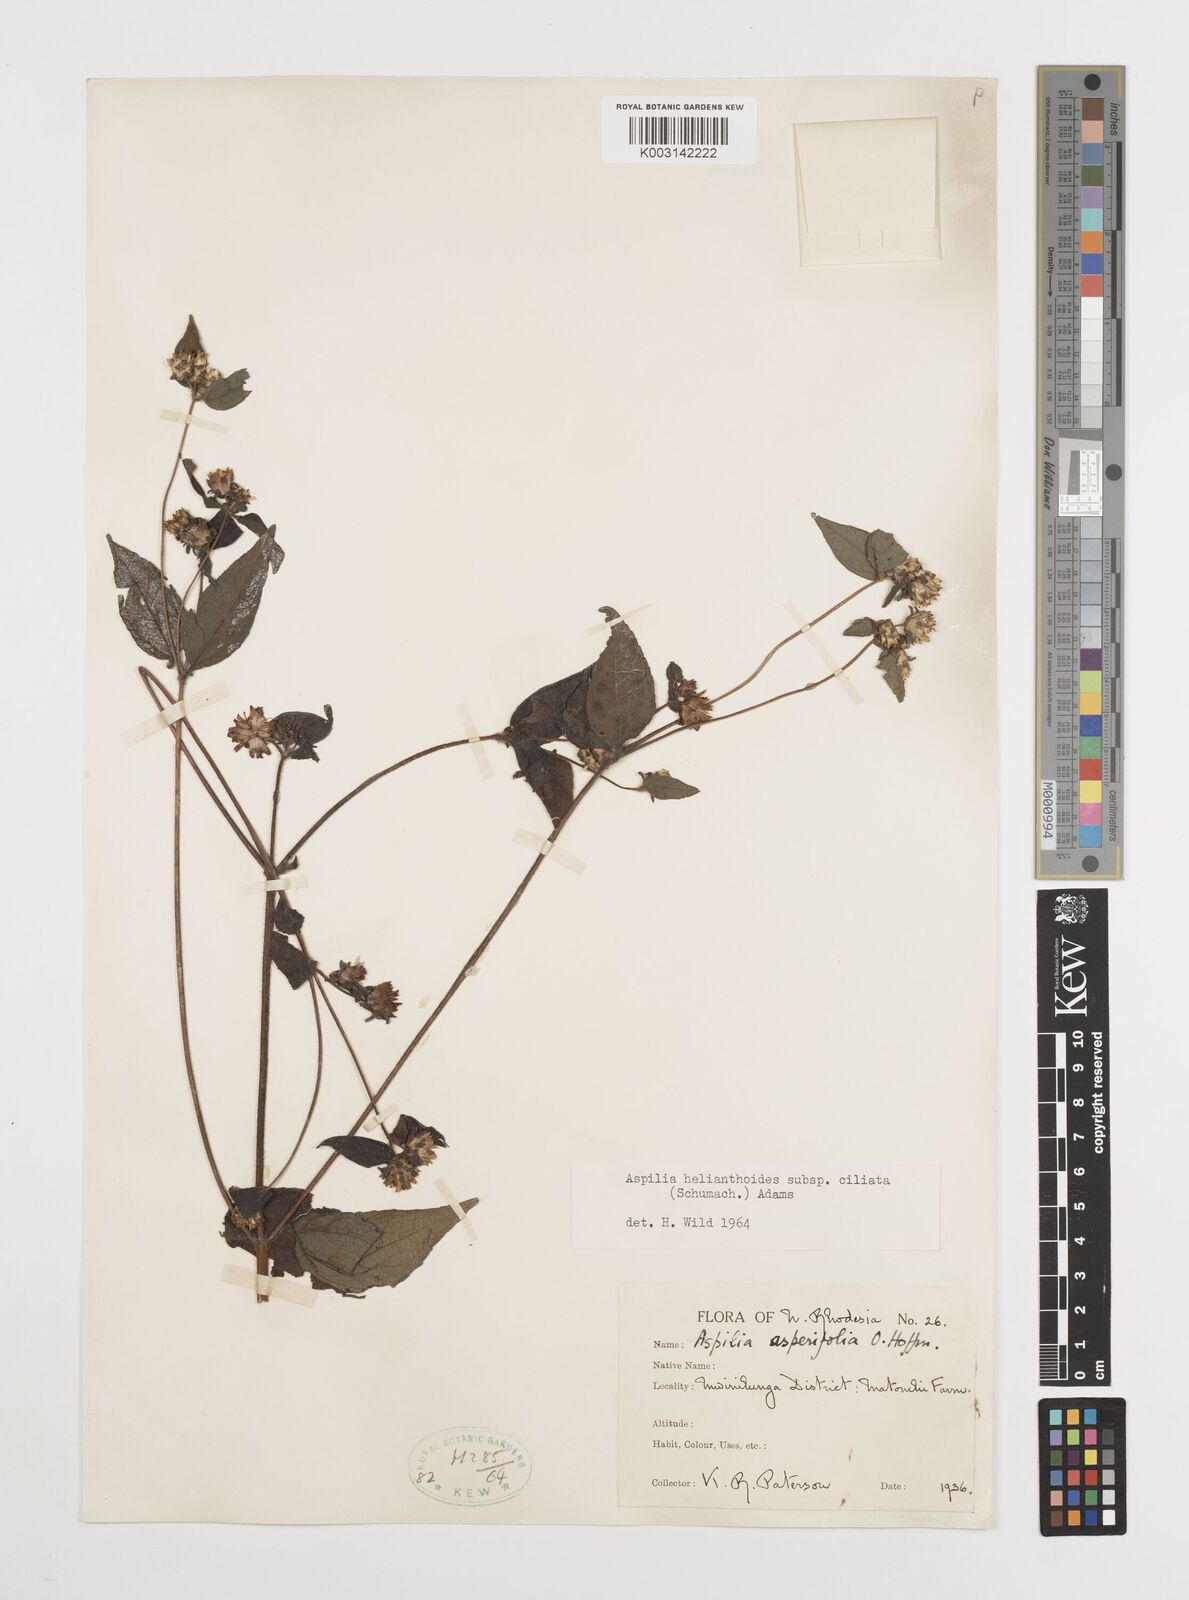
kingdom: Plantae
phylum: Tracheophyta
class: Magnoliopsida
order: Asterales
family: Asteraceae
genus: Aspilia
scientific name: Aspilia ciliata
